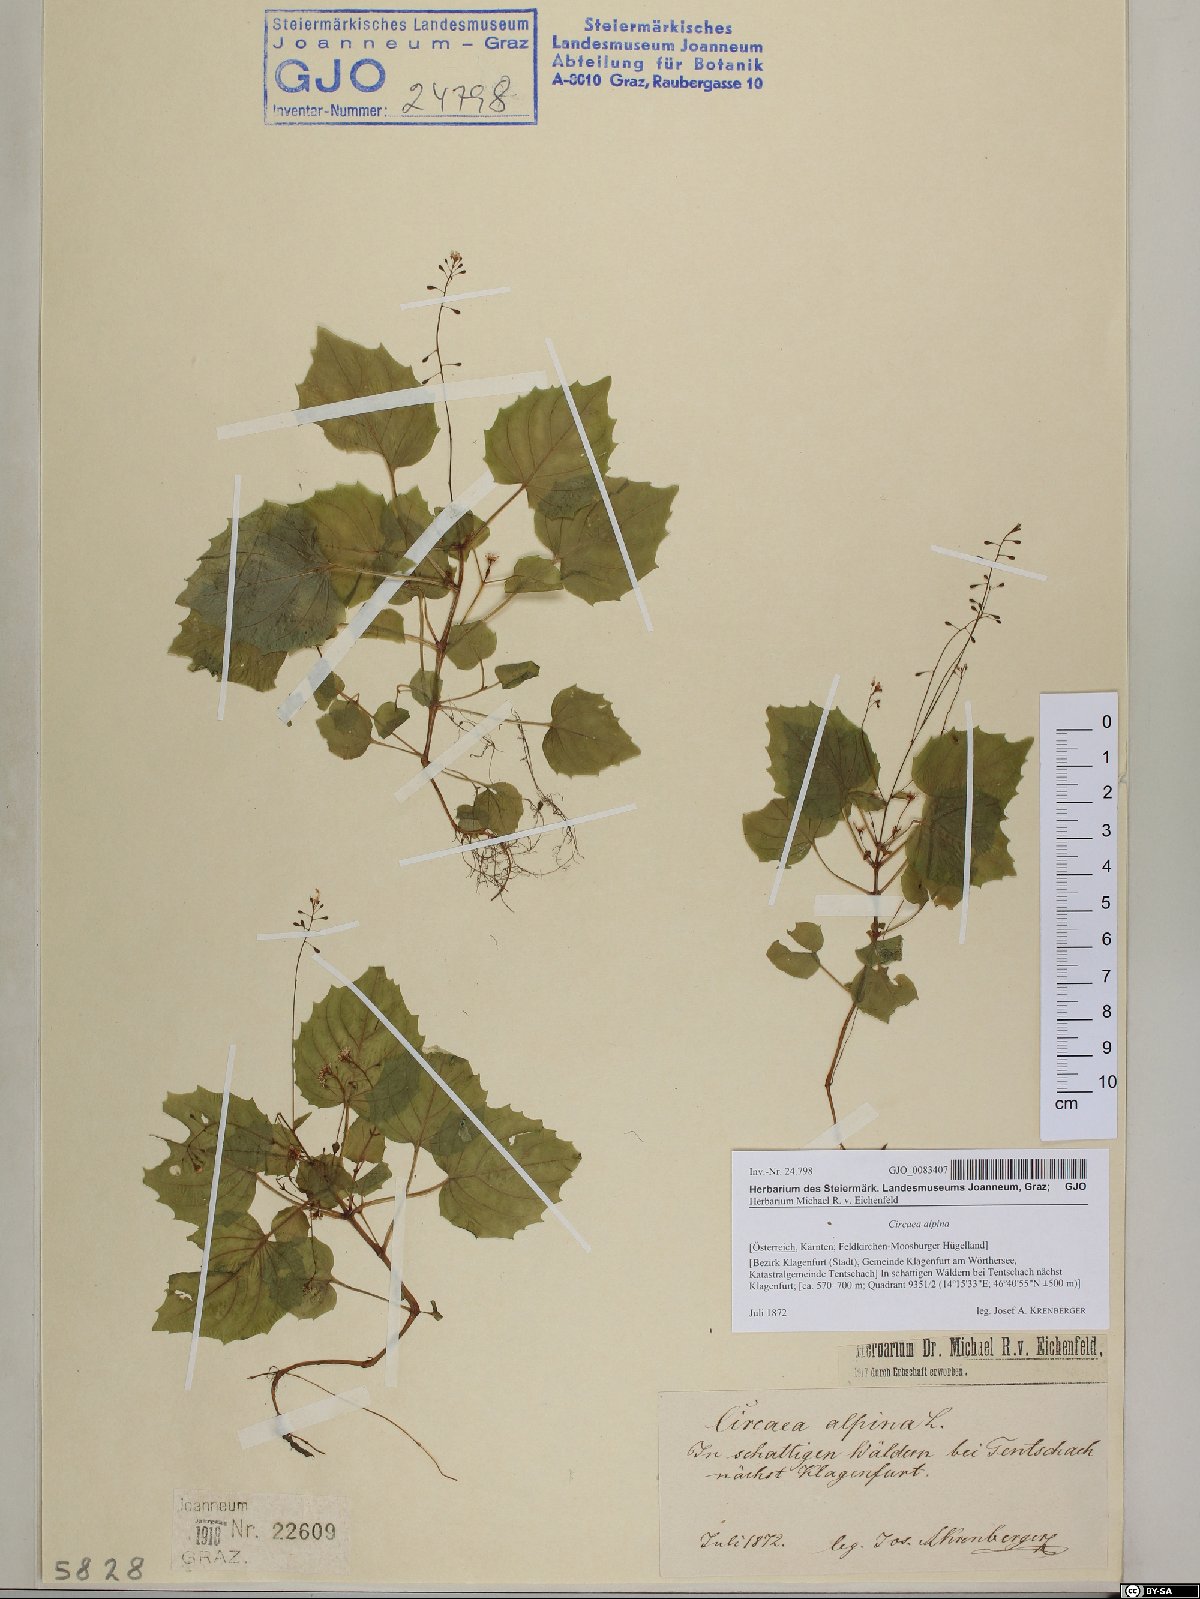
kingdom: Plantae
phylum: Tracheophyta
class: Magnoliopsida
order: Myrtales
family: Onagraceae
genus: Circaea
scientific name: Circaea alpina
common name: Alpine enchanter's-nightshade
